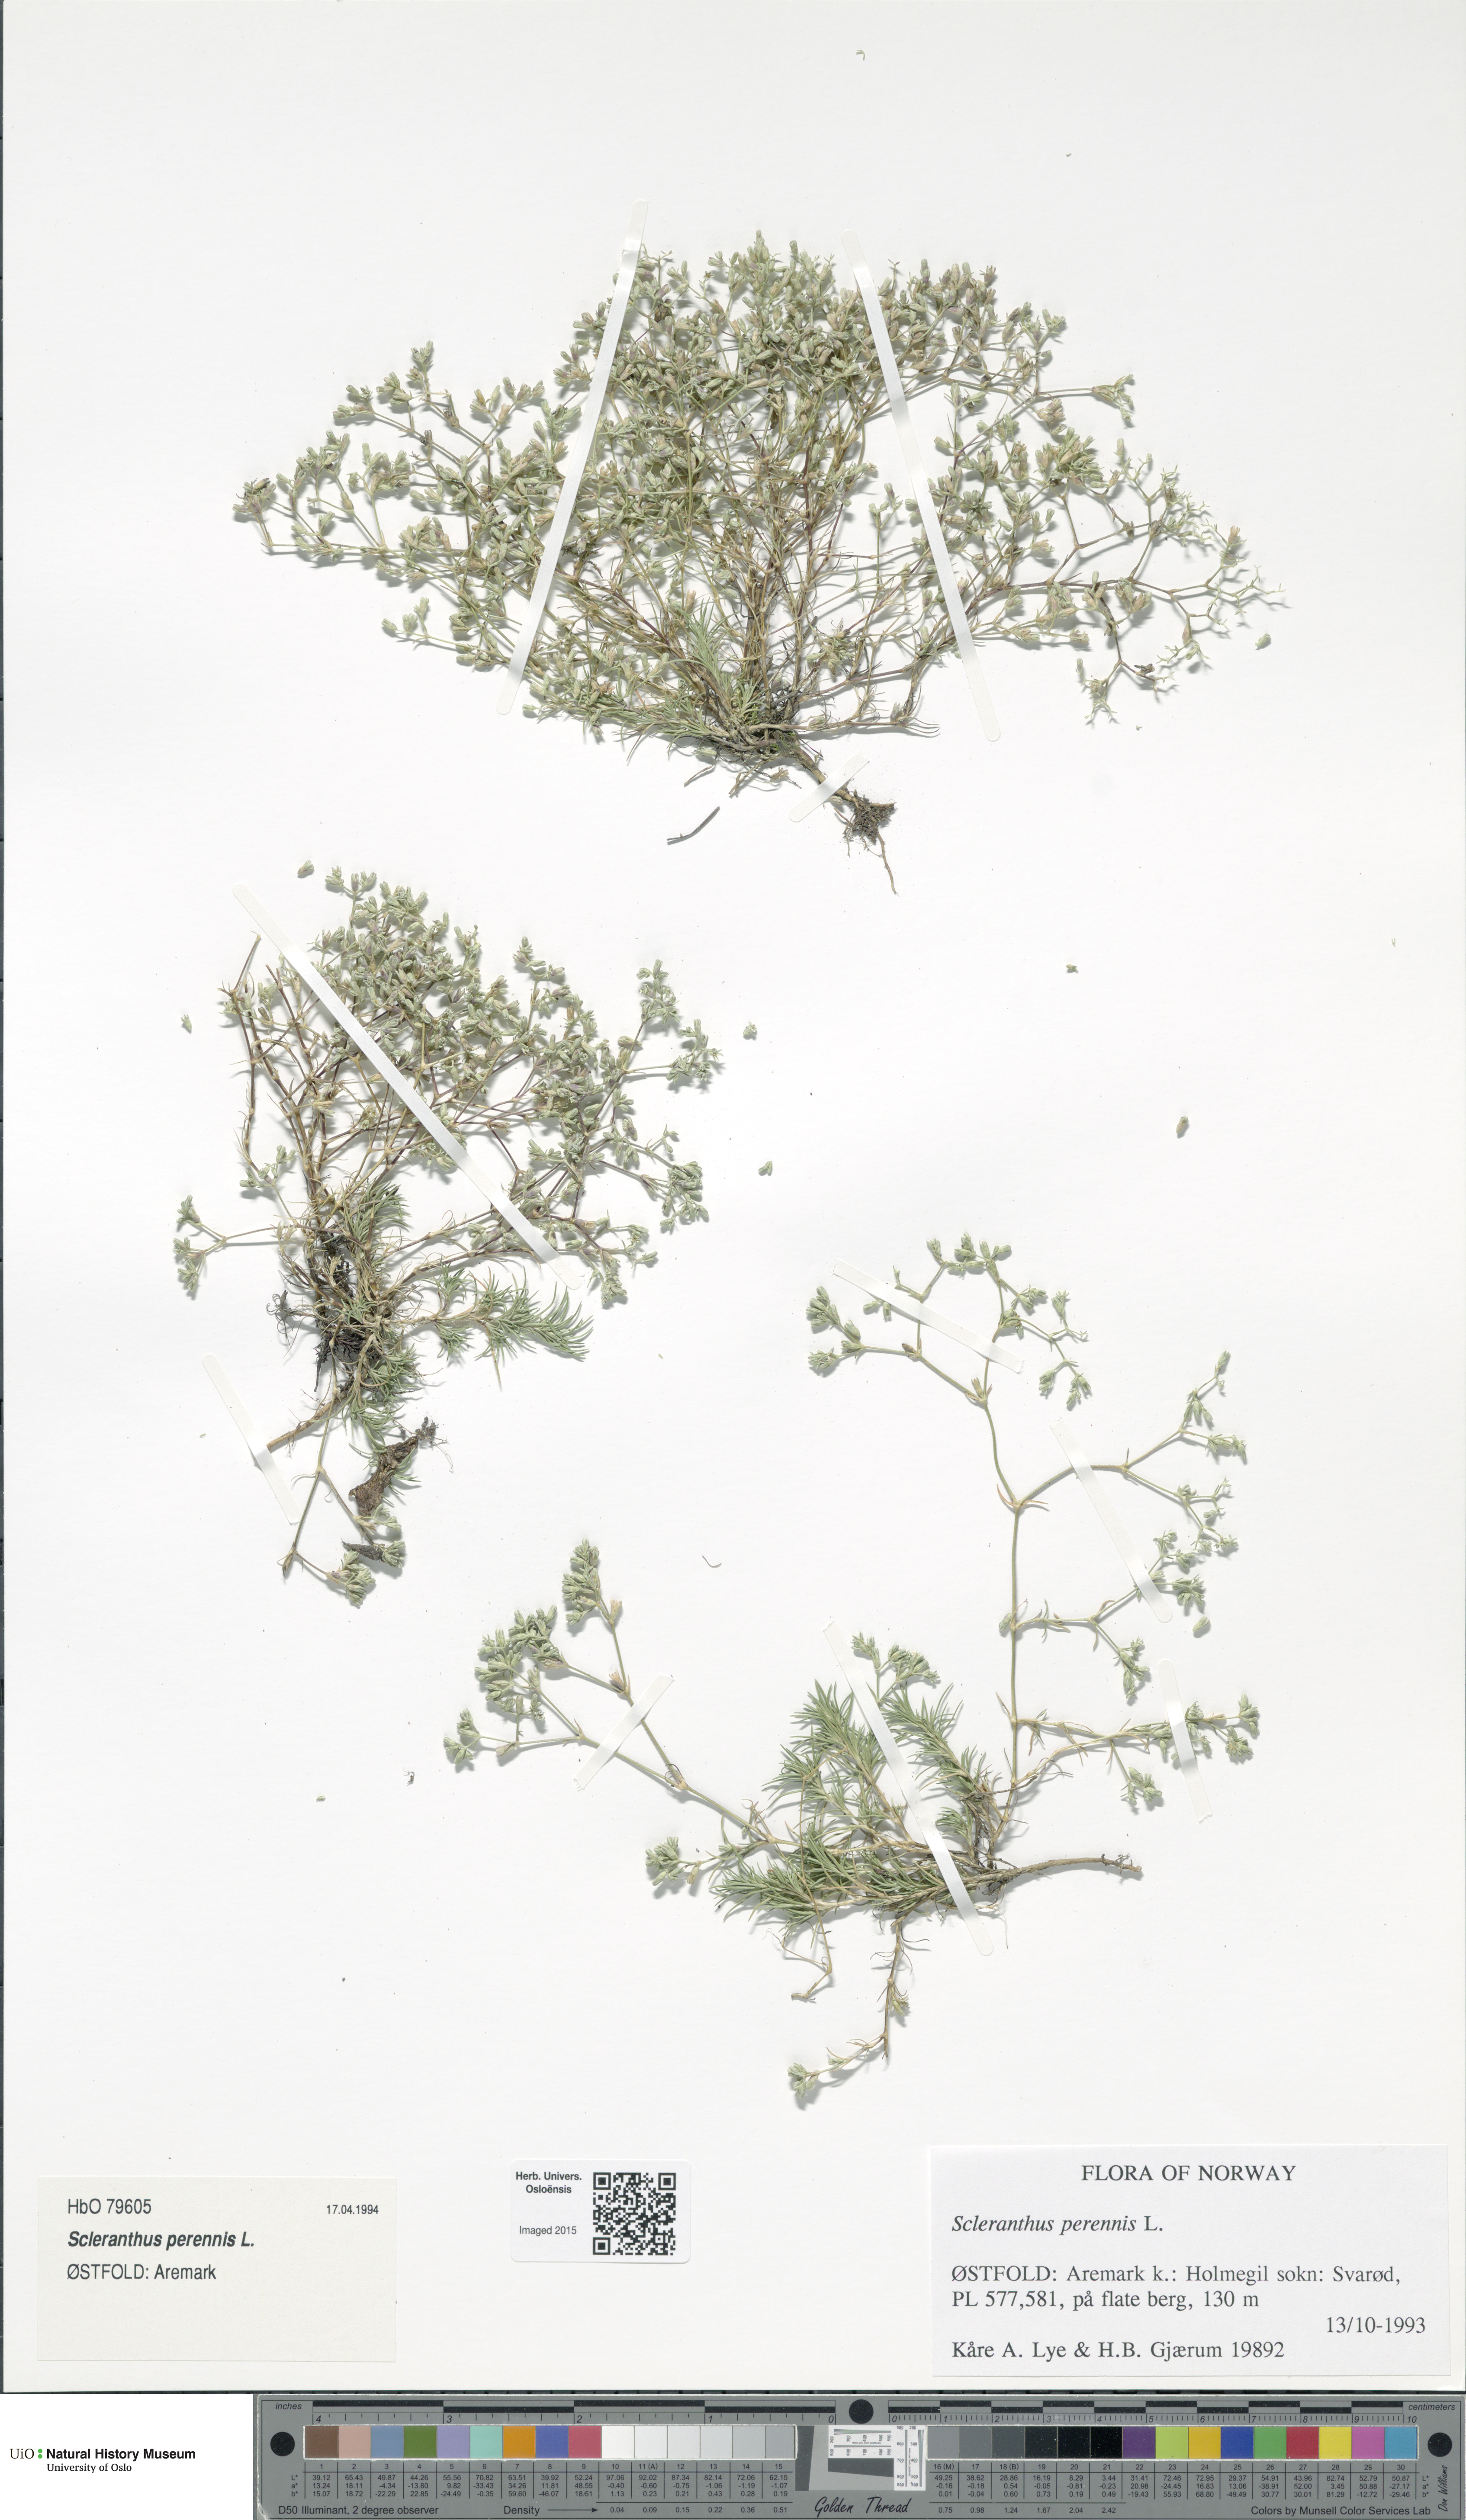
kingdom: Plantae
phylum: Tracheophyta
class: Magnoliopsida
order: Caryophyllales
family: Caryophyllaceae
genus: Scleranthus
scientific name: Scleranthus perennis
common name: Perennial knawel
